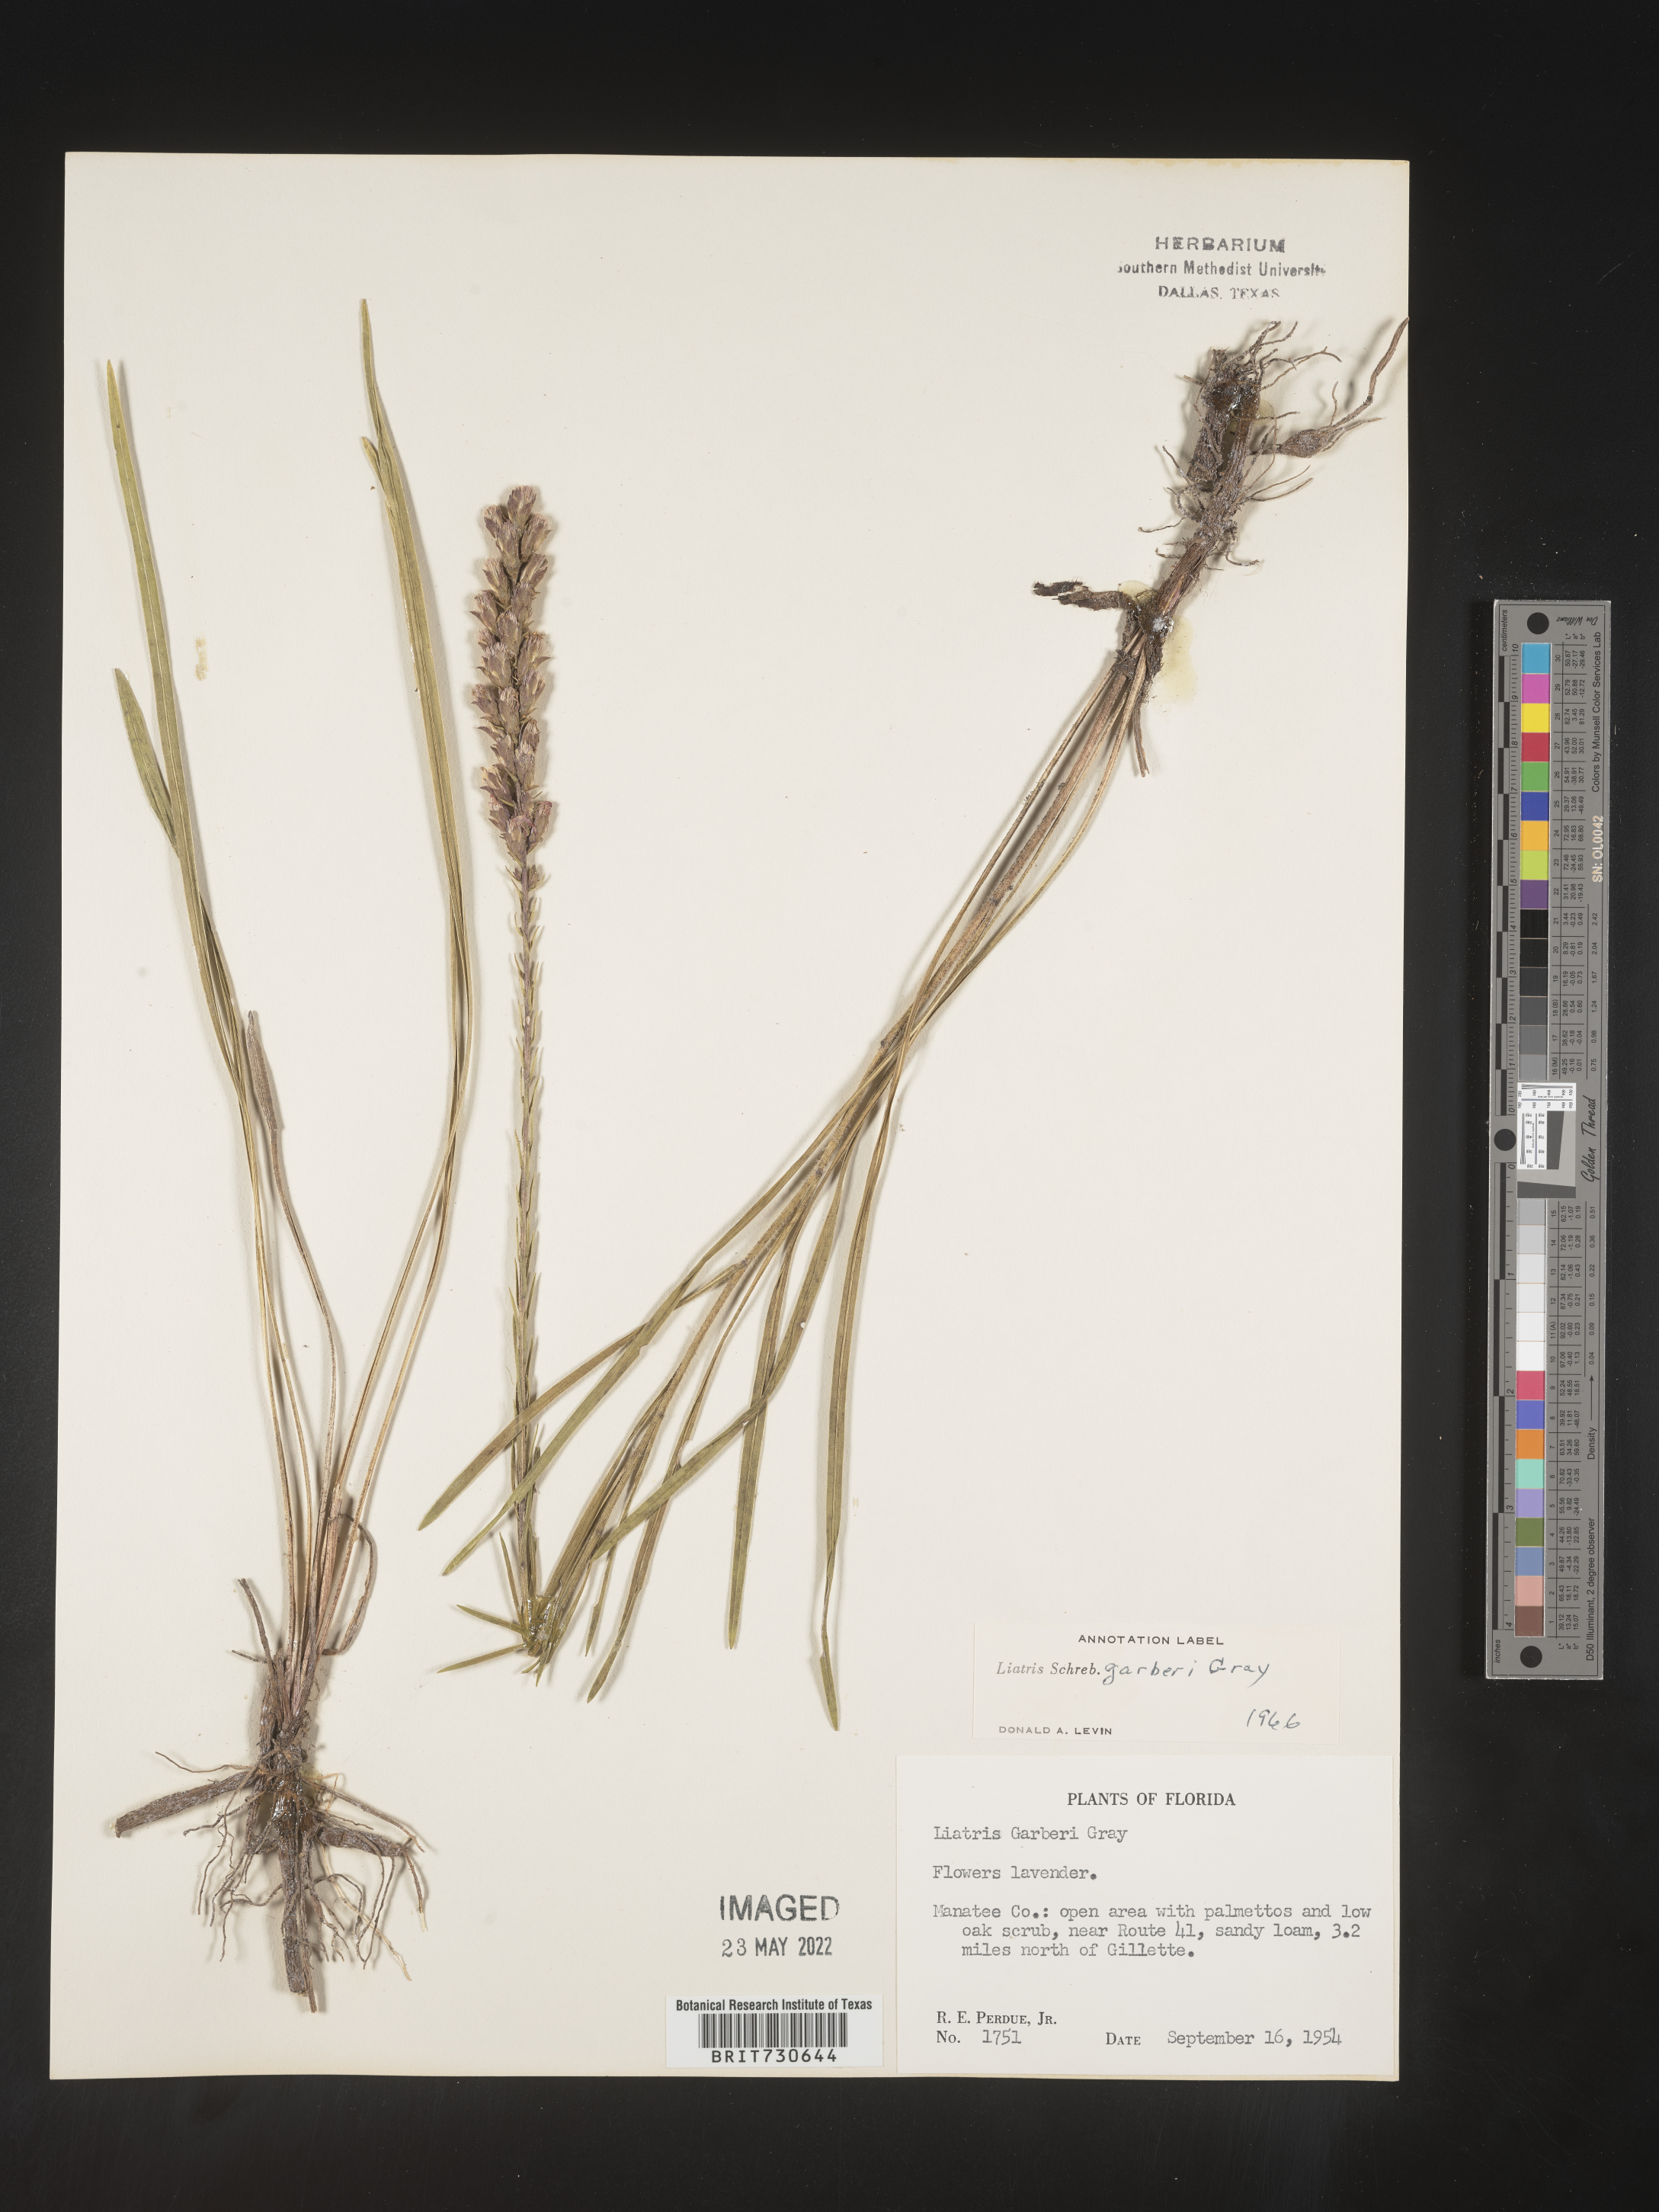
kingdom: Plantae
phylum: Tracheophyta
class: Magnoliopsida
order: Asterales
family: Asteraceae
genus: Liatris
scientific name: Liatris garberi
